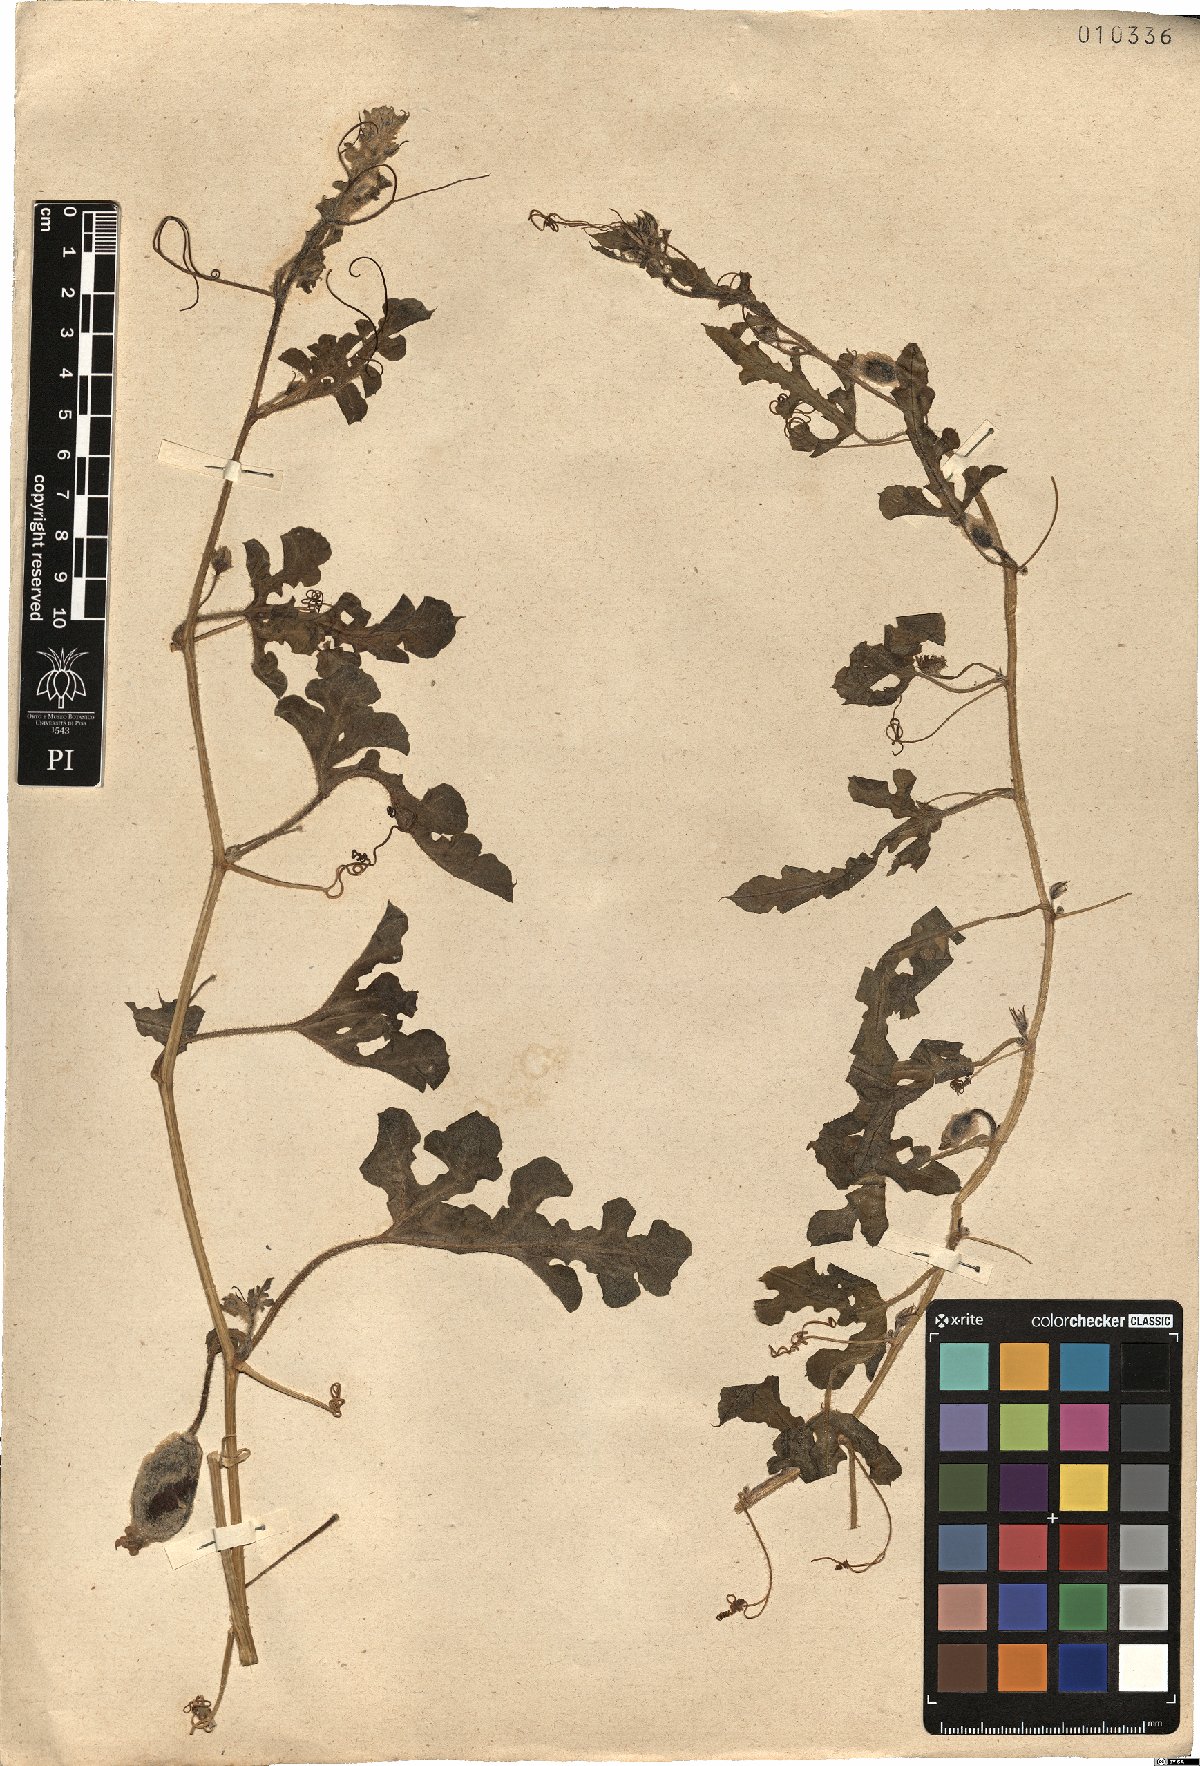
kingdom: Plantae
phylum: Tracheophyta
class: Magnoliopsida
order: Cucurbitales
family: Cucurbitaceae
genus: Citrullus
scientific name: Citrullus colocynthis
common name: Colocynth
